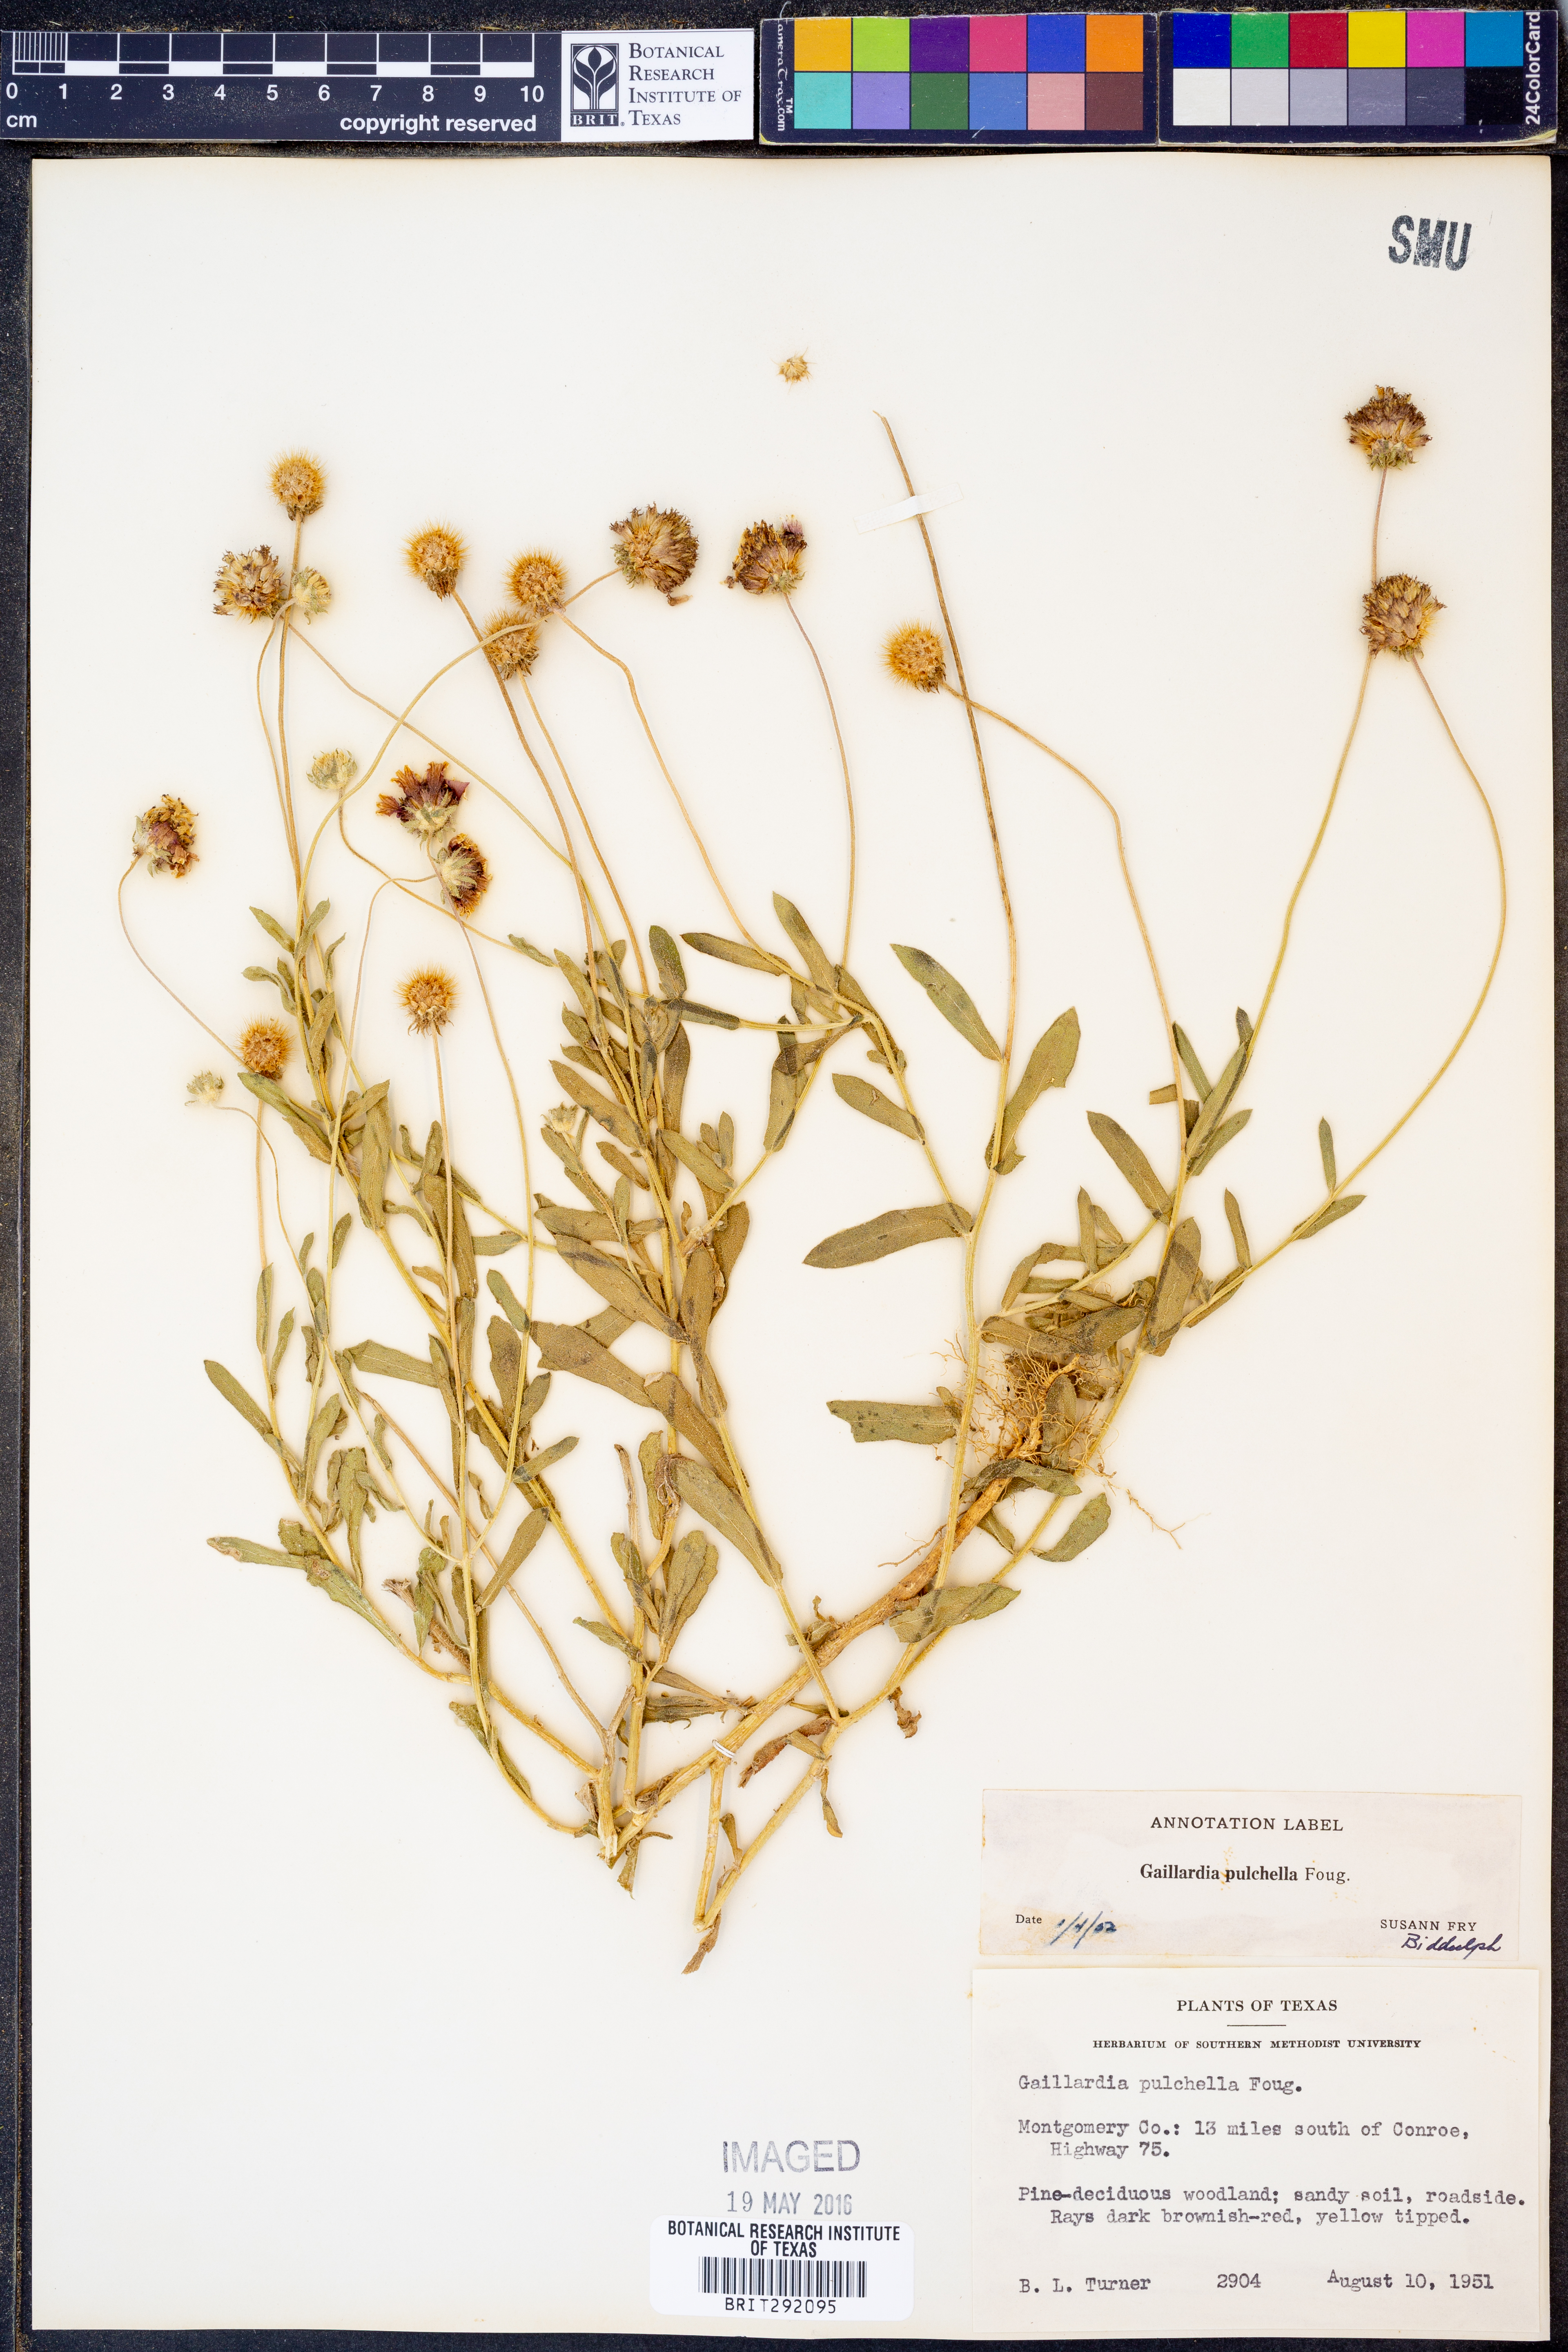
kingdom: Plantae
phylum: Tracheophyta
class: Magnoliopsida
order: Asterales
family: Asteraceae
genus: Gaillardia
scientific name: Gaillardia pulchella
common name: Firewheel
